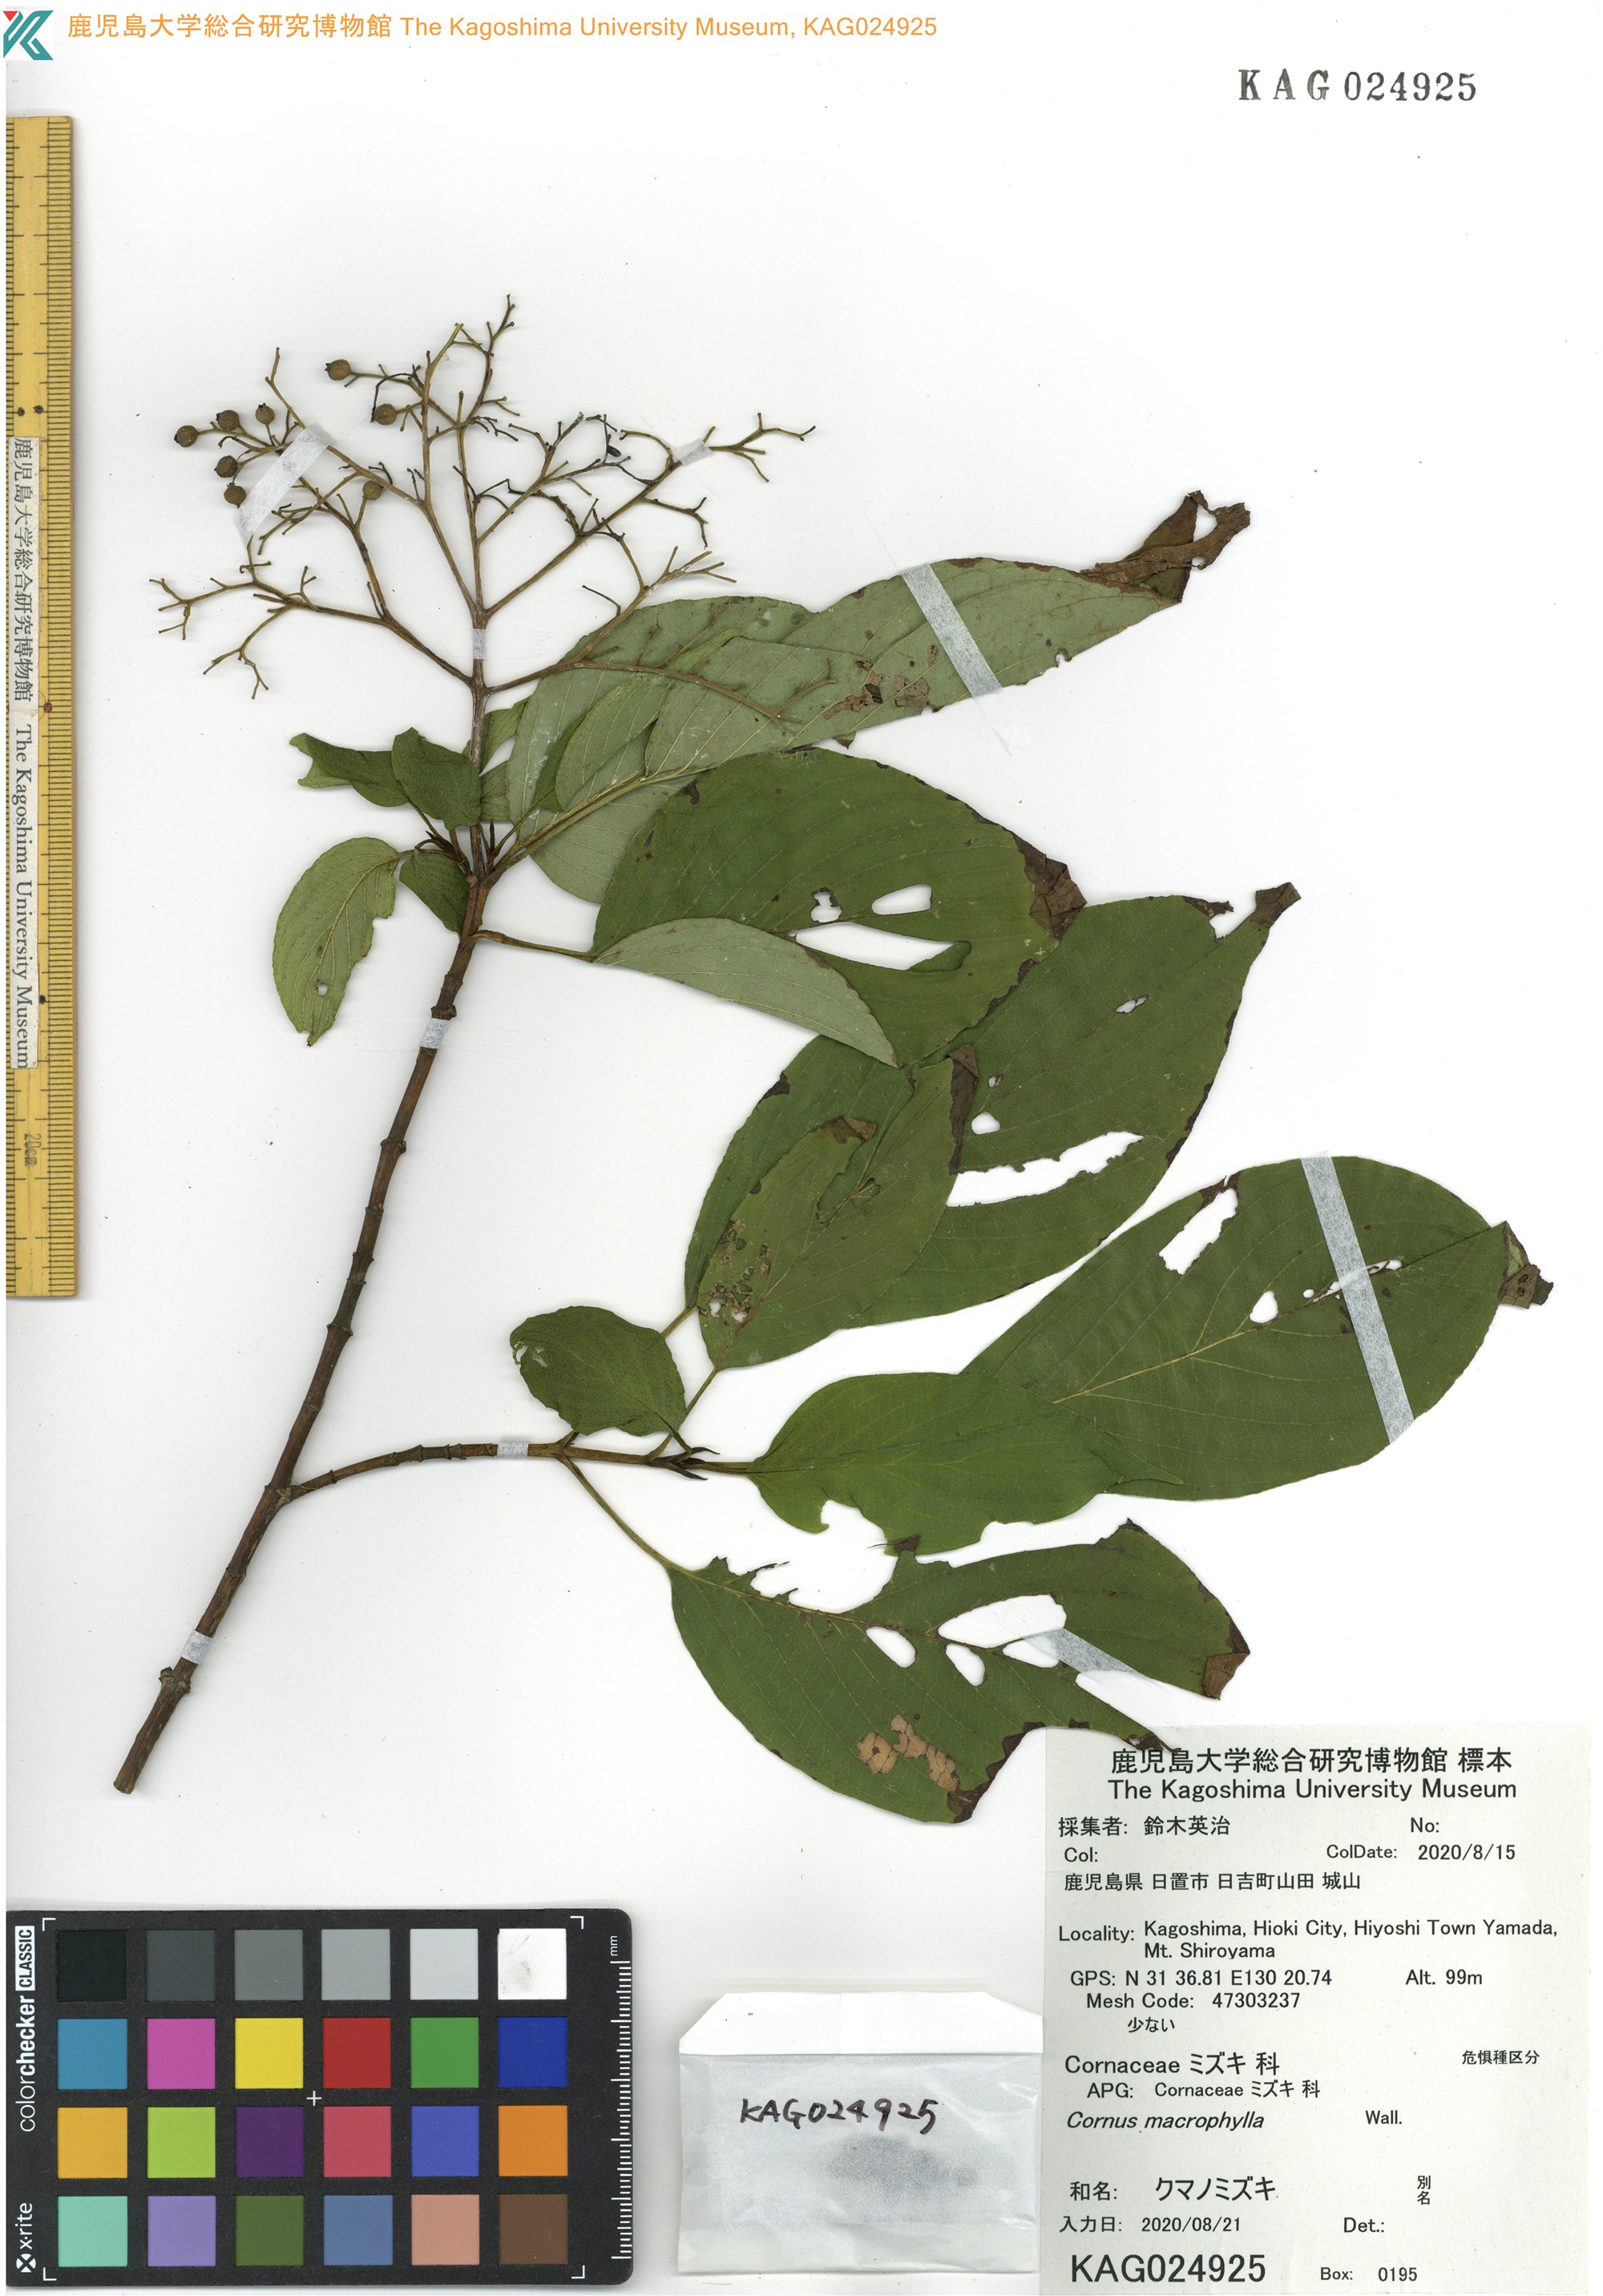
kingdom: Plantae
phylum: Tracheophyta
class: Magnoliopsida
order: Cornales
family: Cornaceae
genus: Cornus
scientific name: Cornus macrophylla
